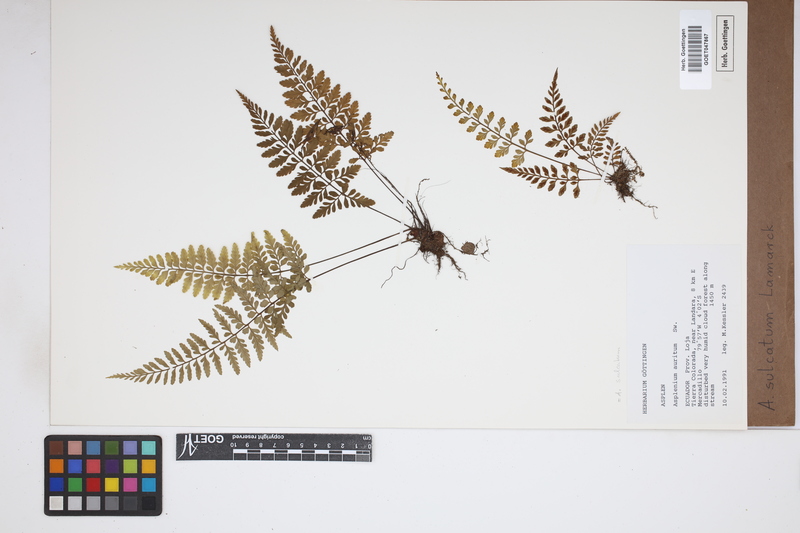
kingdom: Plantae
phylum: Tracheophyta
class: Polypodiopsida
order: Polypodiales
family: Aspleniaceae
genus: Asplenium
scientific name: Asplenium sulcatum
